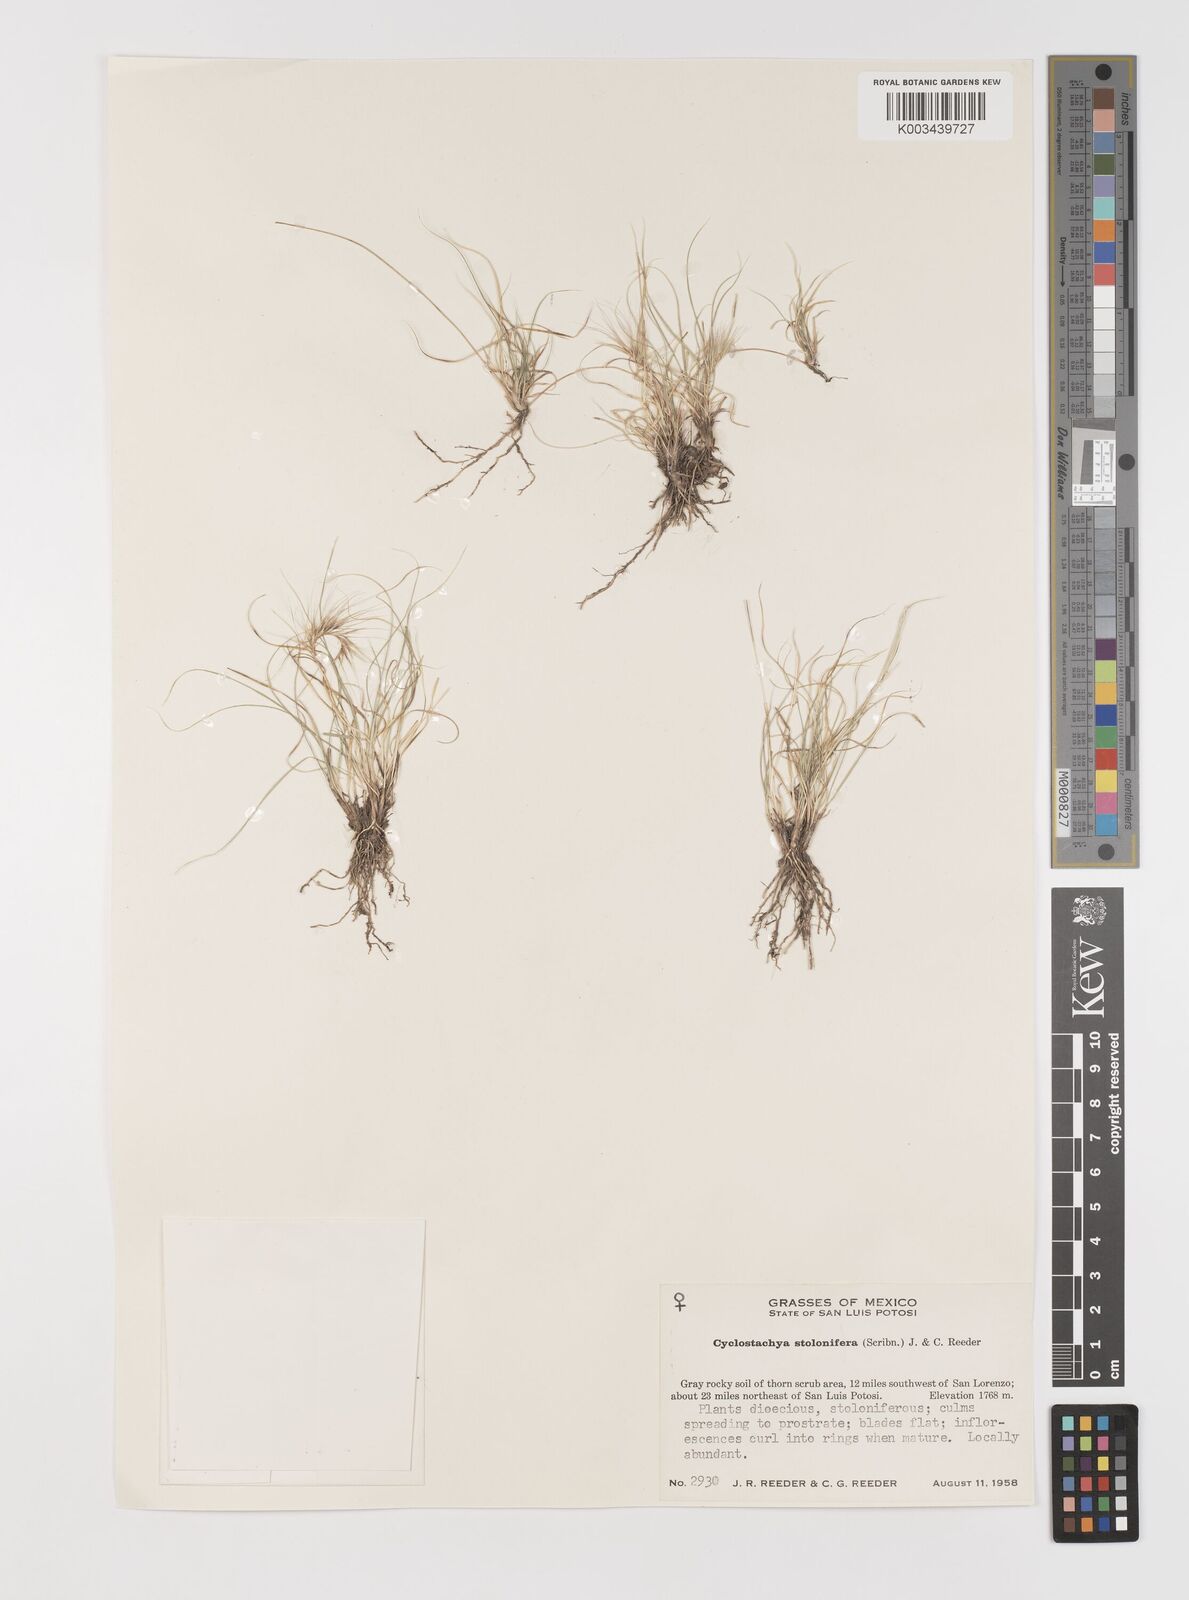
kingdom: Plantae
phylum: Tracheophyta
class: Liliopsida
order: Poales
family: Poaceae
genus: Bouteloua
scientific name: Bouteloua stolonifera
